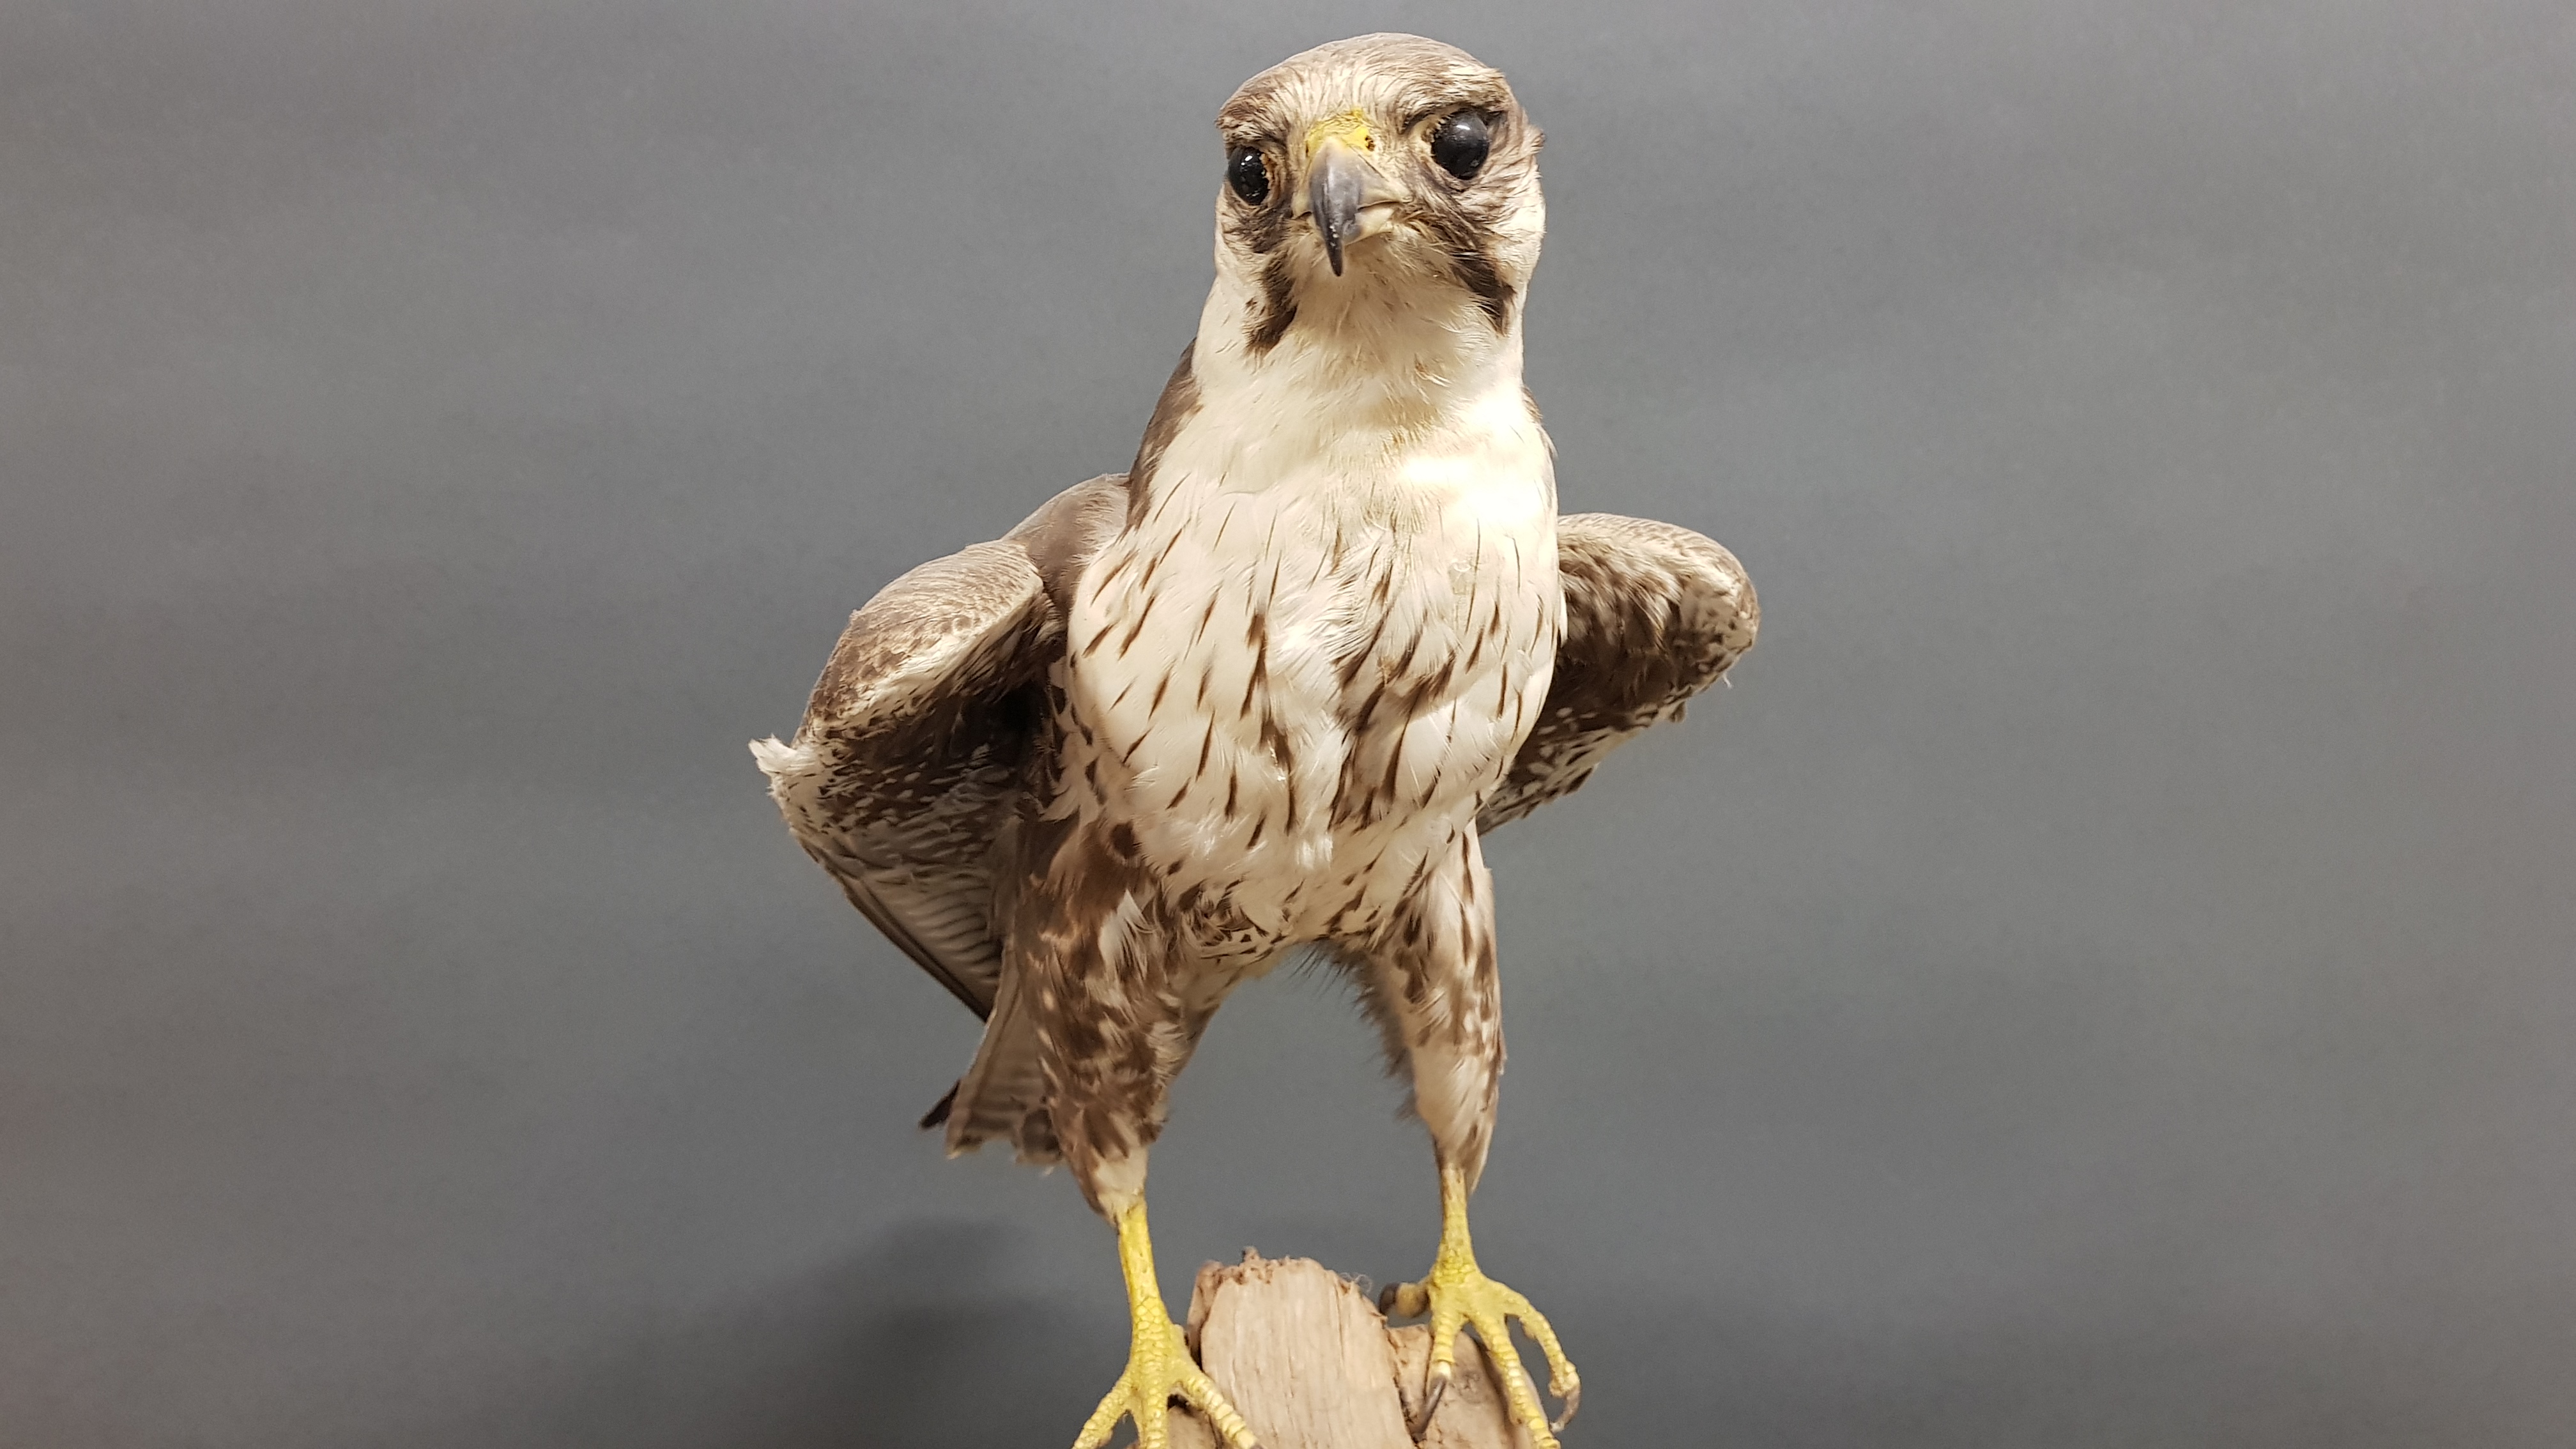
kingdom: Animalia
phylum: Chordata
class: Aves
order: Falconiformes
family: Falconidae
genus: Falco
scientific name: Falco jugger
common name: Laggar falcon
